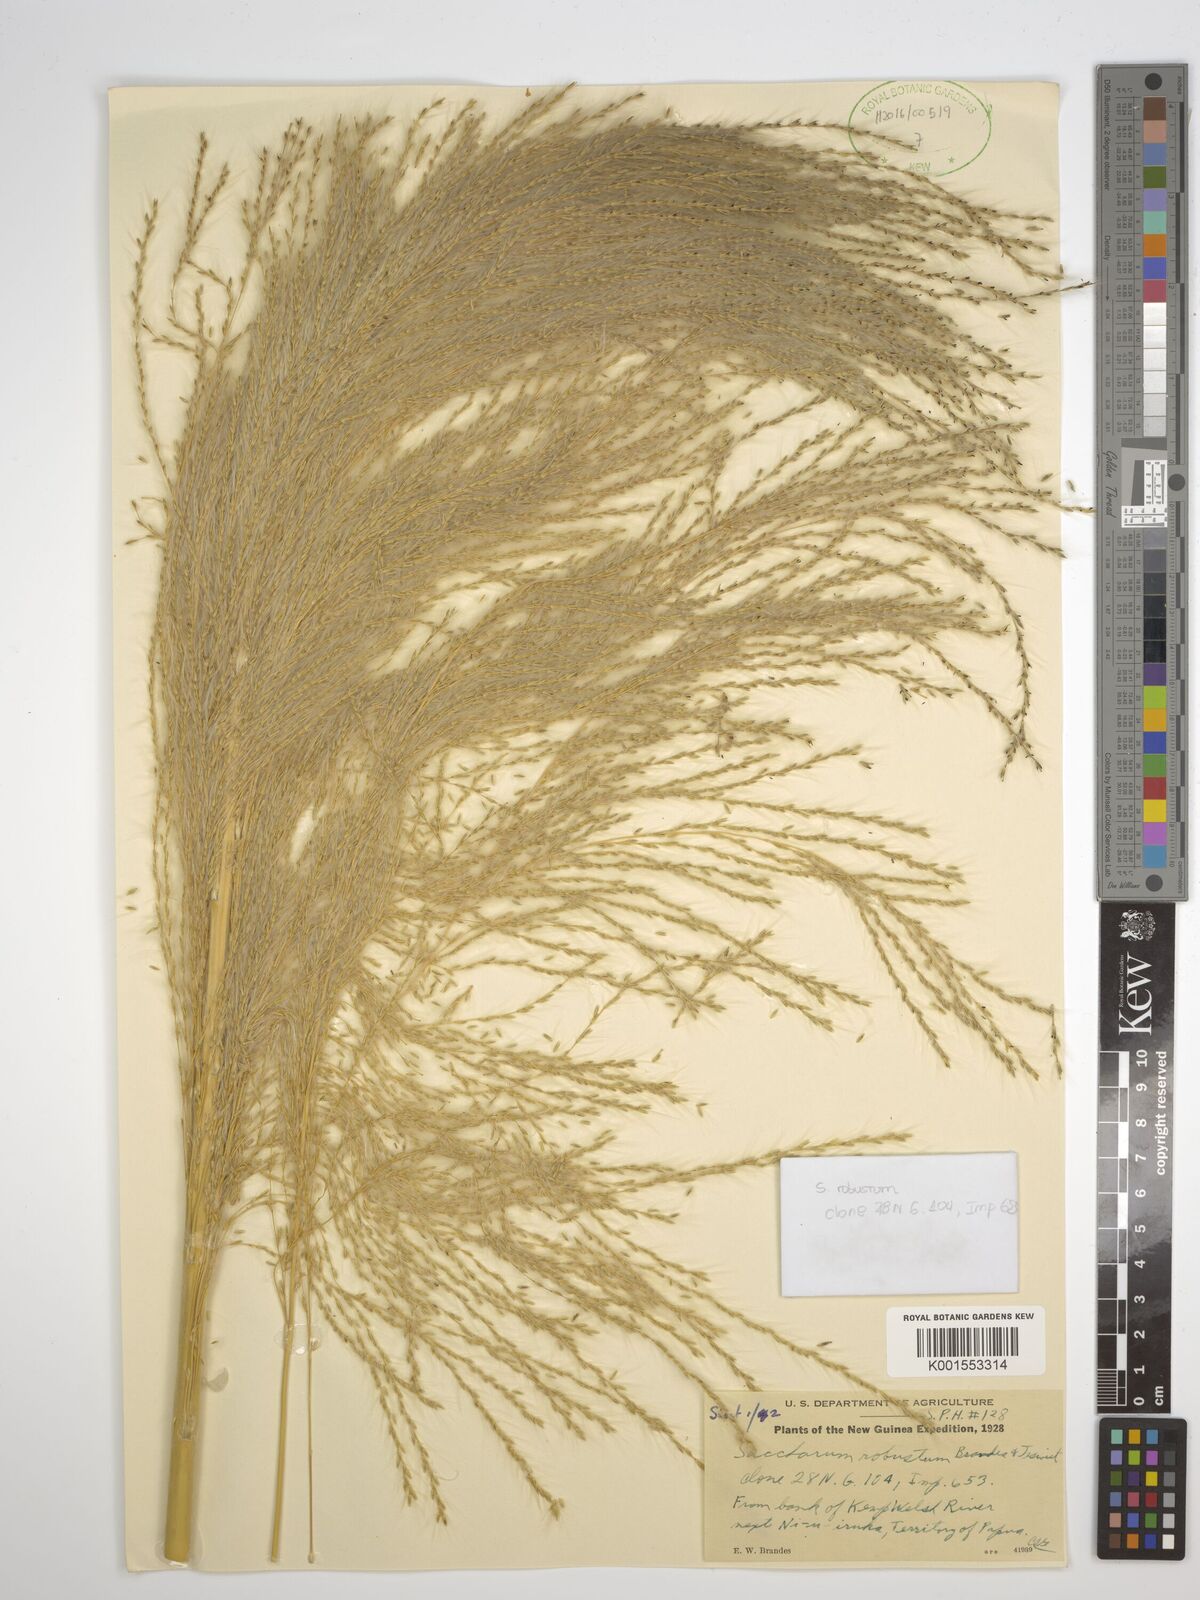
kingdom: Plantae
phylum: Tracheophyta
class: Liliopsida
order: Poales
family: Poaceae
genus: Saccharum
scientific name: Saccharum robustum
